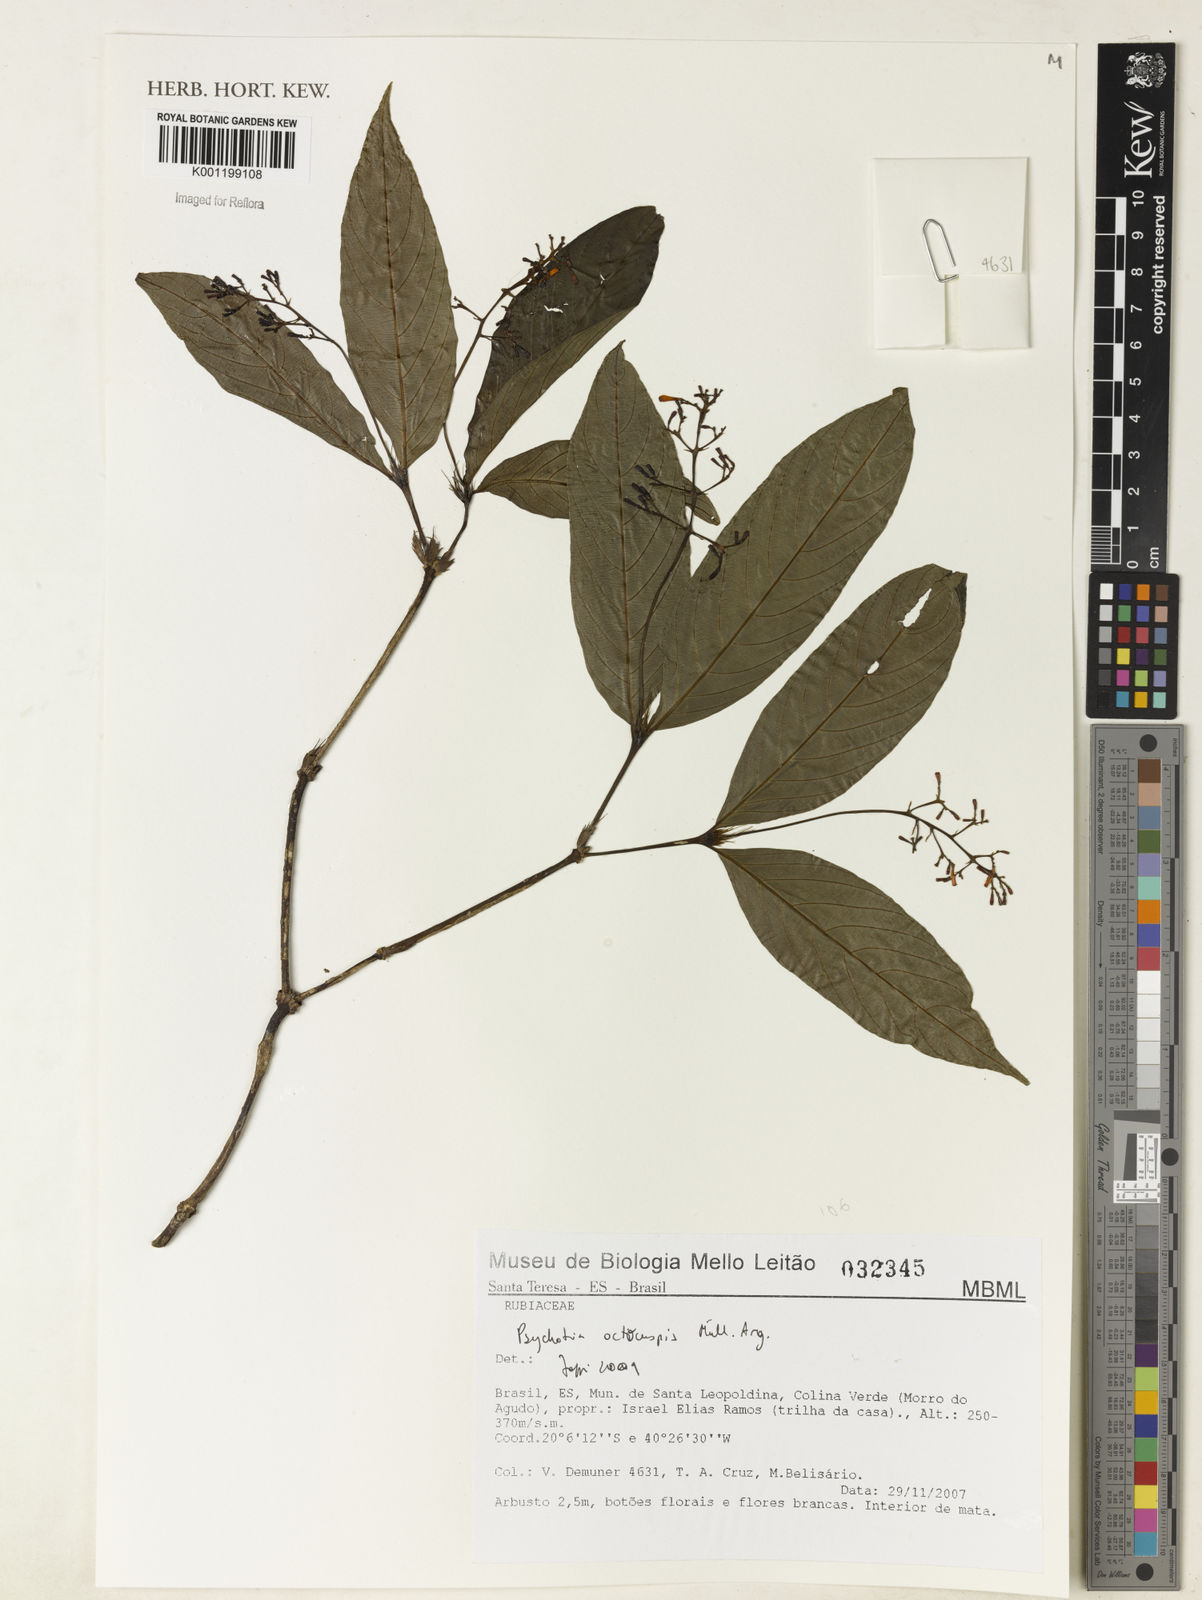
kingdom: Plantae
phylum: Tracheophyta
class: Magnoliopsida
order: Gentianales
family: Rubiaceae
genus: Psychotria
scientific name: Psychotria
